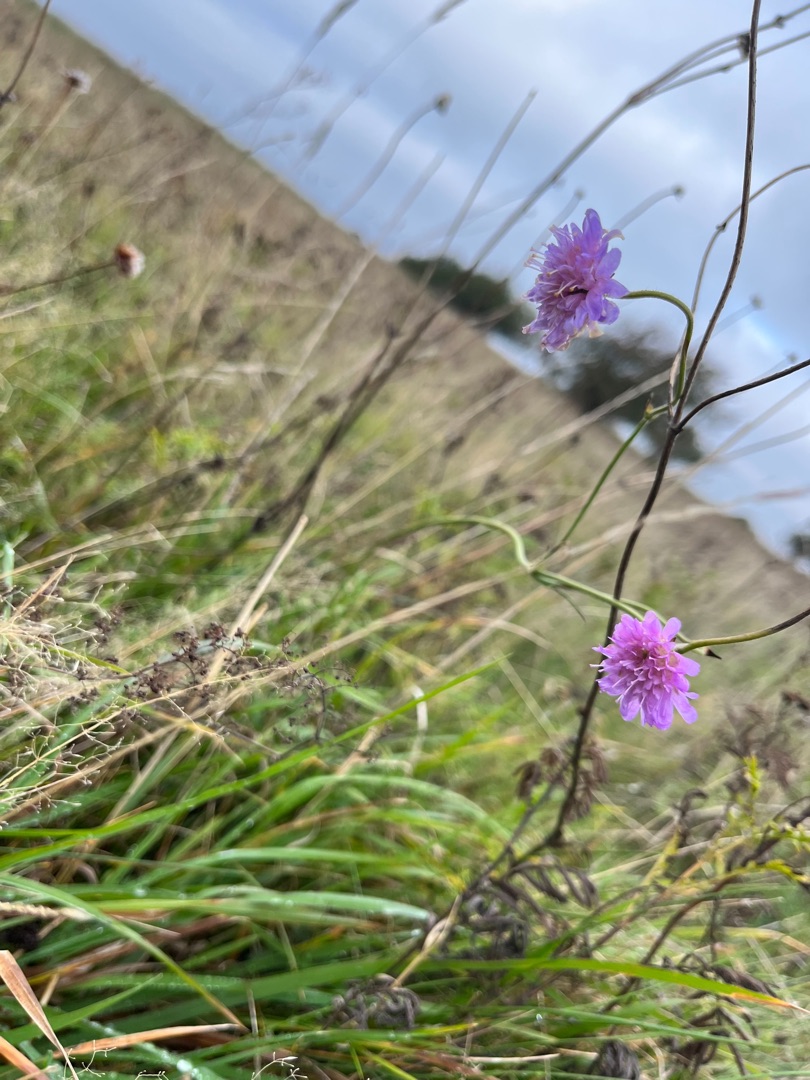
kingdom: Plantae
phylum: Tracheophyta
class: Magnoliopsida
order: Dipsacales
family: Caprifoliaceae
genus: Knautia
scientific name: Knautia arvensis
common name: Blåhat
